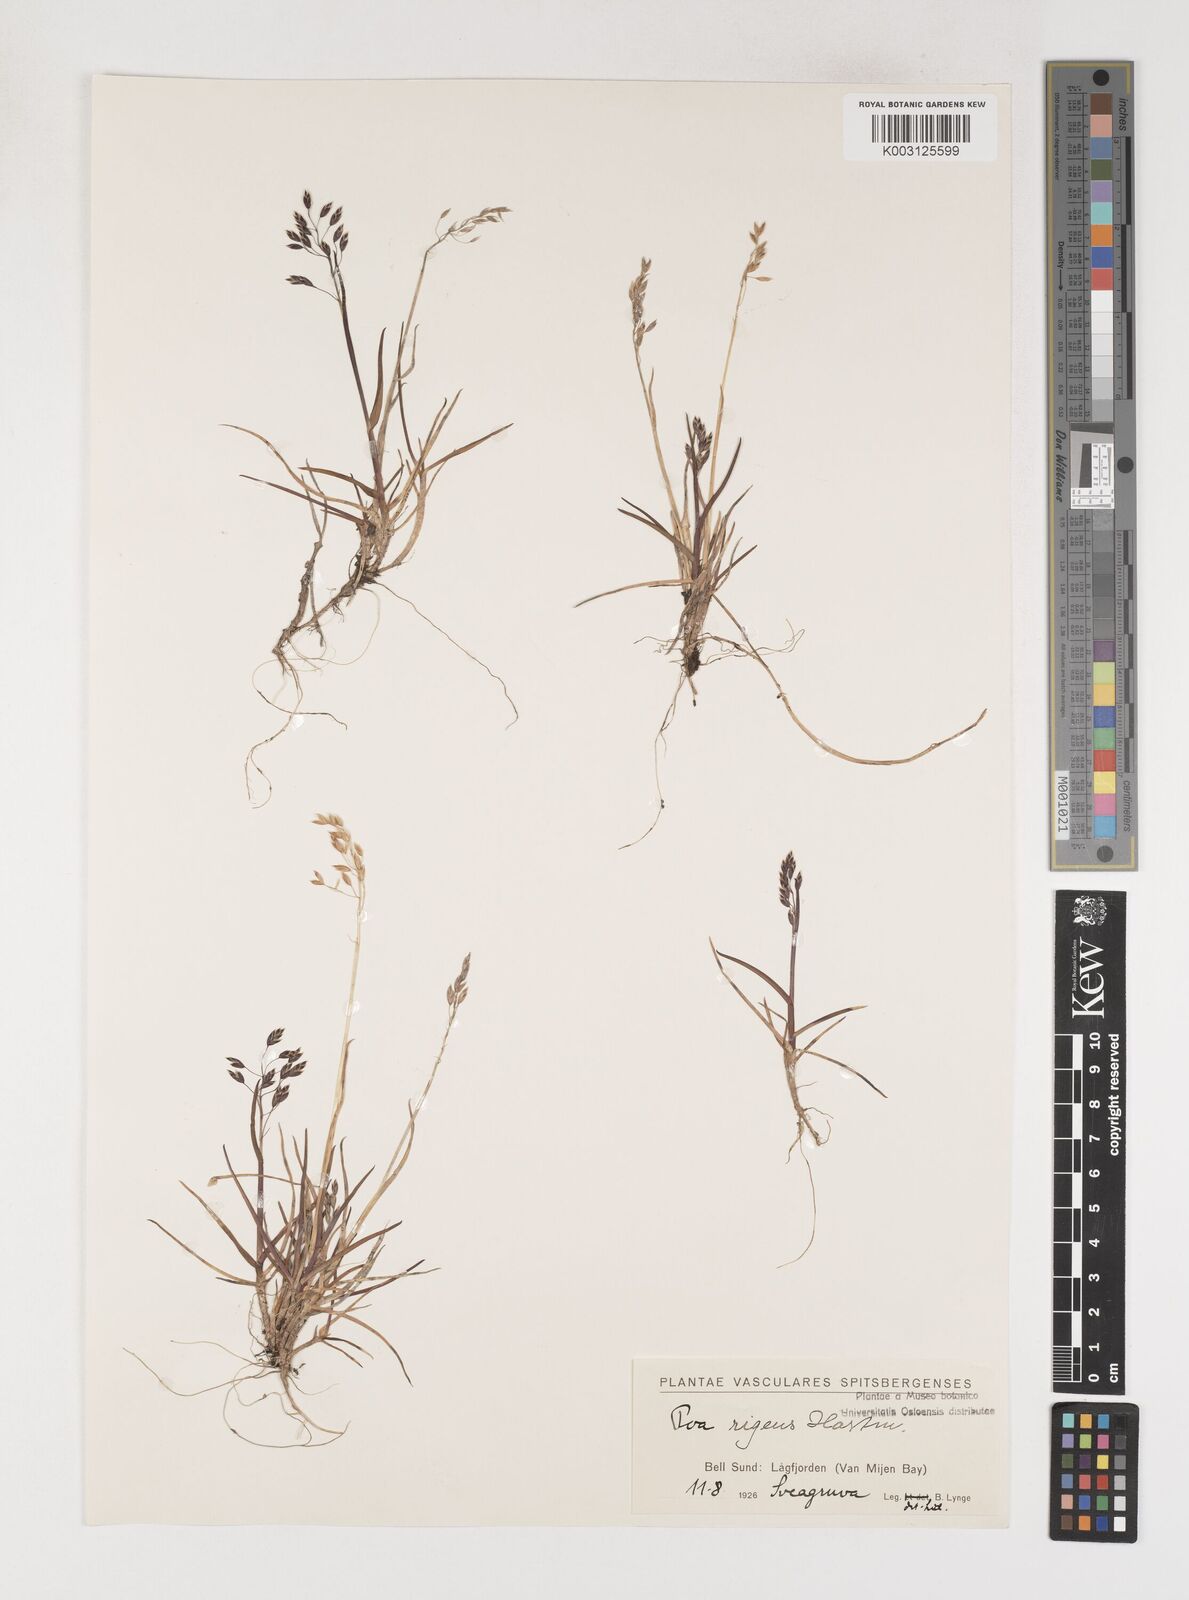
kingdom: Plantae
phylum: Tracheophyta
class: Liliopsida
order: Poales
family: Poaceae
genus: Poa
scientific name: Poa arctica
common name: Arctic bluegrass
